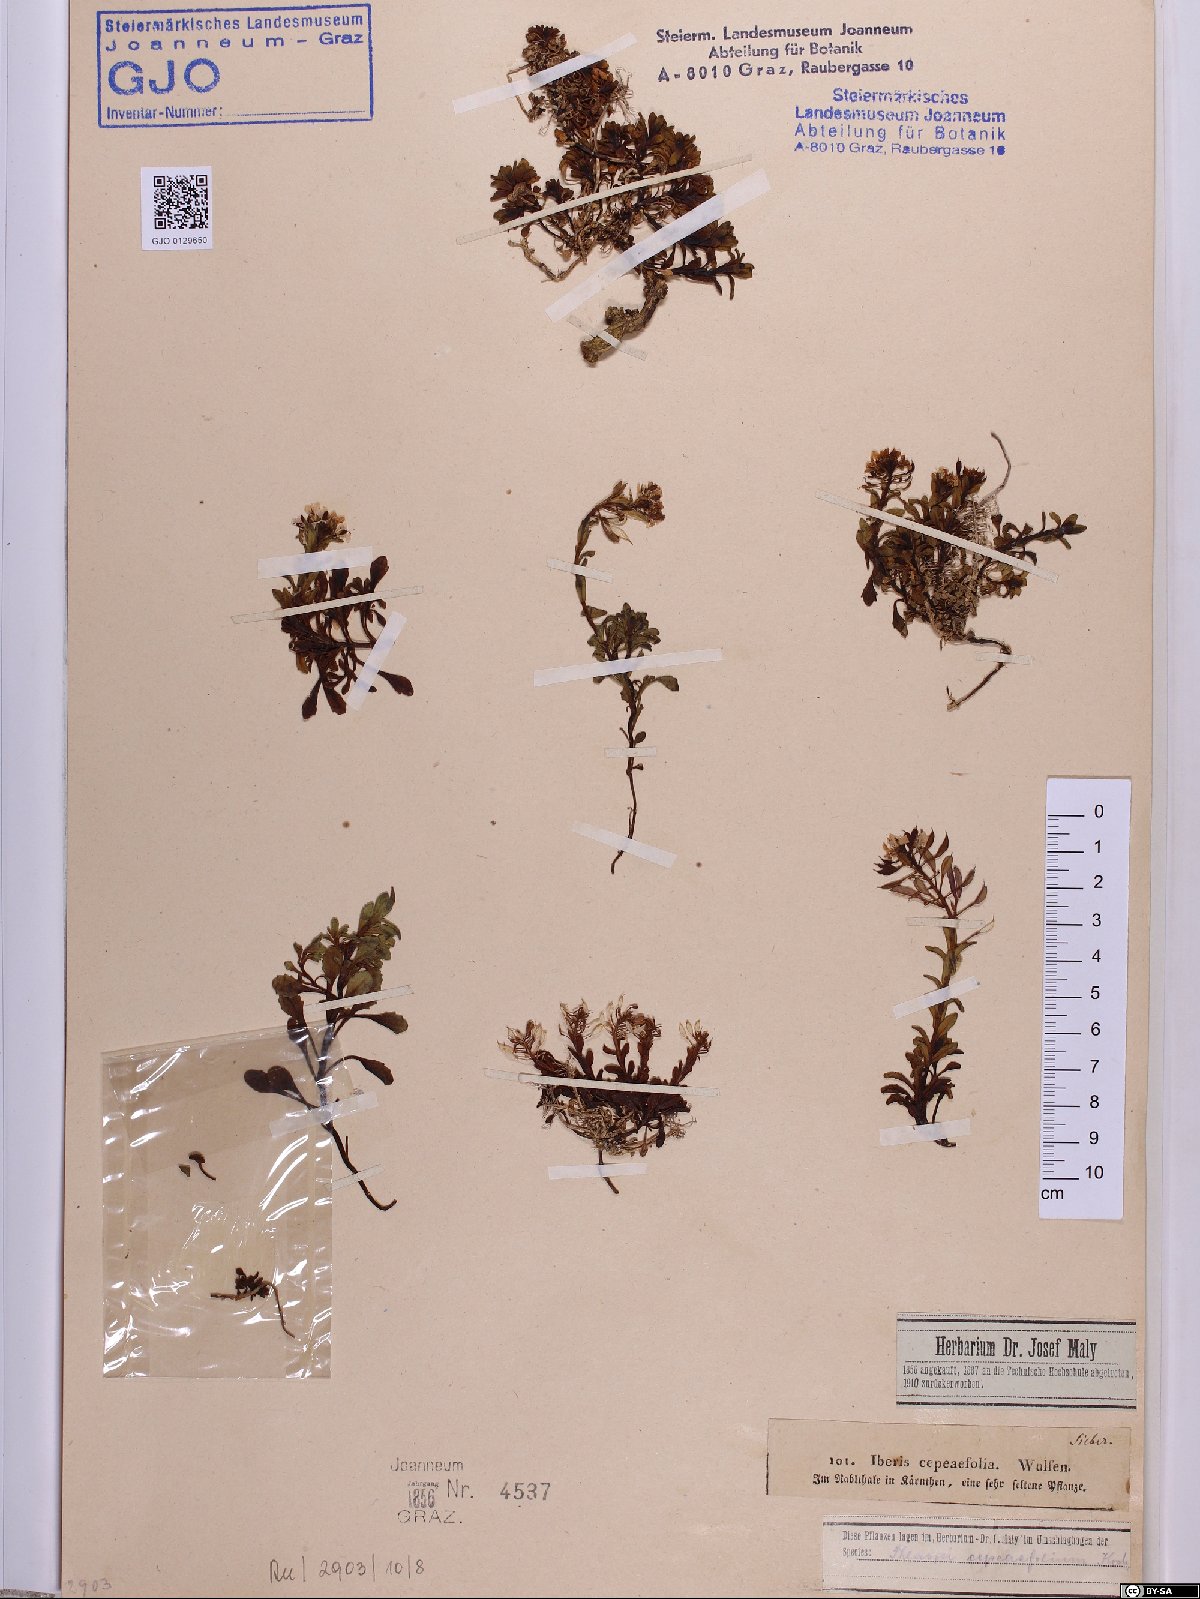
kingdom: Plantae
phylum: Tracheophyta
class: Magnoliopsida
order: Brassicales
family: Brassicaceae
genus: Noccaea
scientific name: Noccaea cepaeifolia
